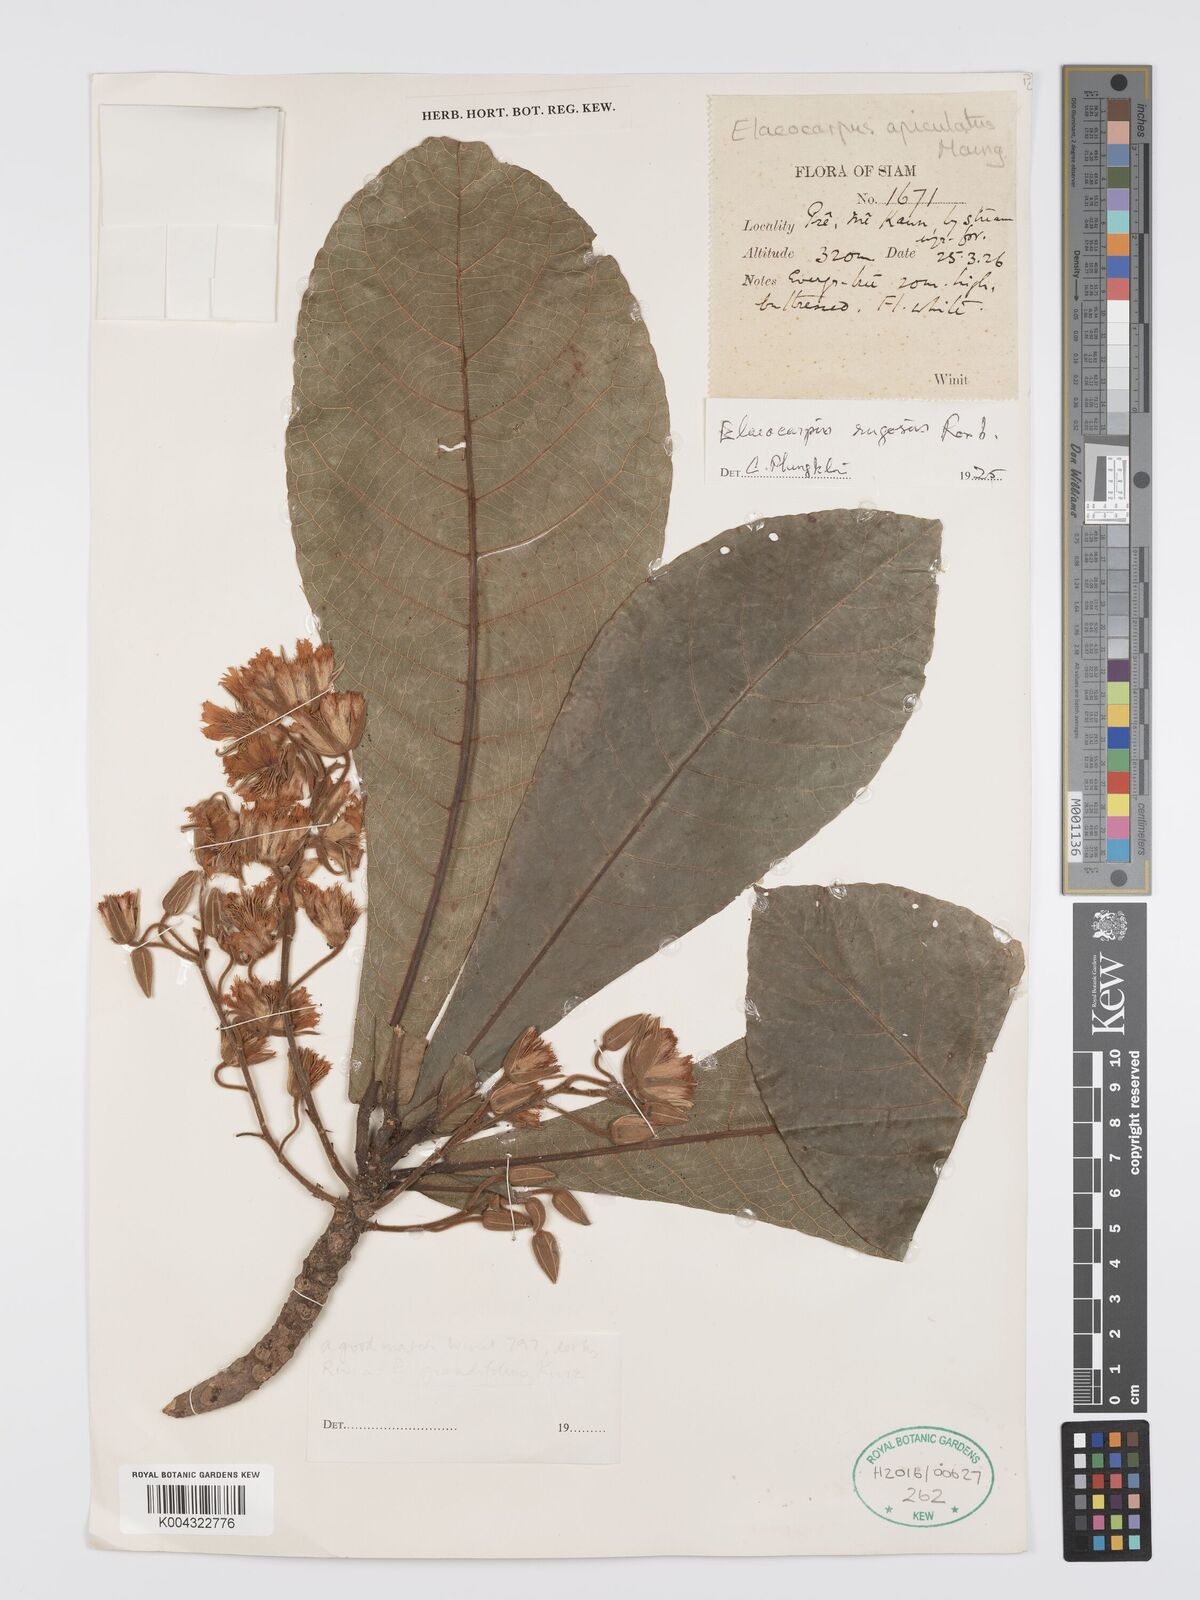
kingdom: Plantae
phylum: Tracheophyta
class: Magnoliopsida
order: Oxalidales
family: Elaeocarpaceae
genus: Elaeocarpus
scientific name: Elaeocarpus rugosus
